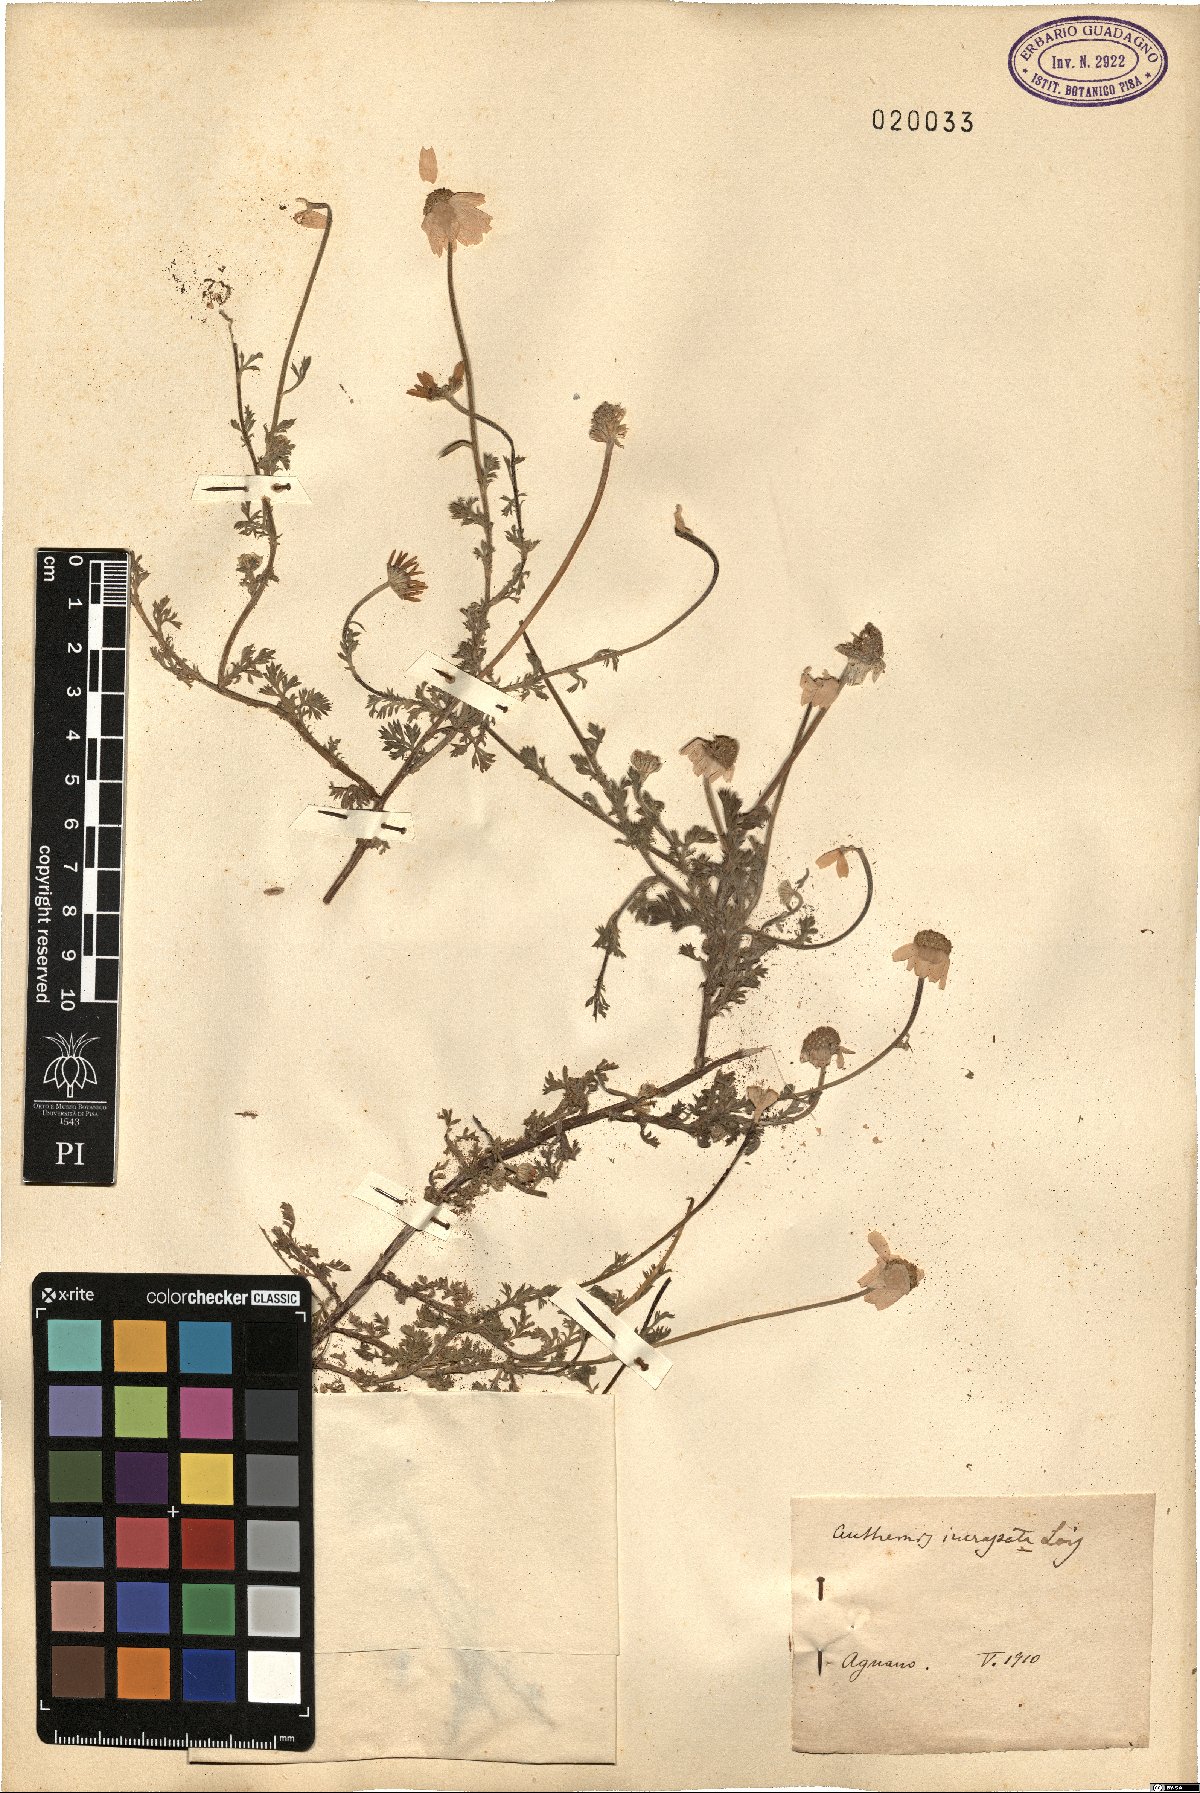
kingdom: Plantae
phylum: Tracheophyta
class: Magnoliopsida
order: Asterales
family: Asteraceae
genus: Anthemis
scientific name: Anthemis arvensis
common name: Corn chamomile
